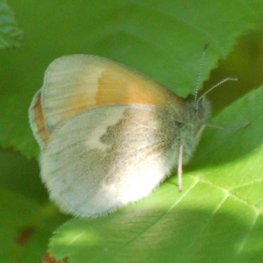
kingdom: Animalia
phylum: Arthropoda
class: Insecta
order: Lepidoptera
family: Nymphalidae
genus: Coenonympha
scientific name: Coenonympha tullia
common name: Large Heath
